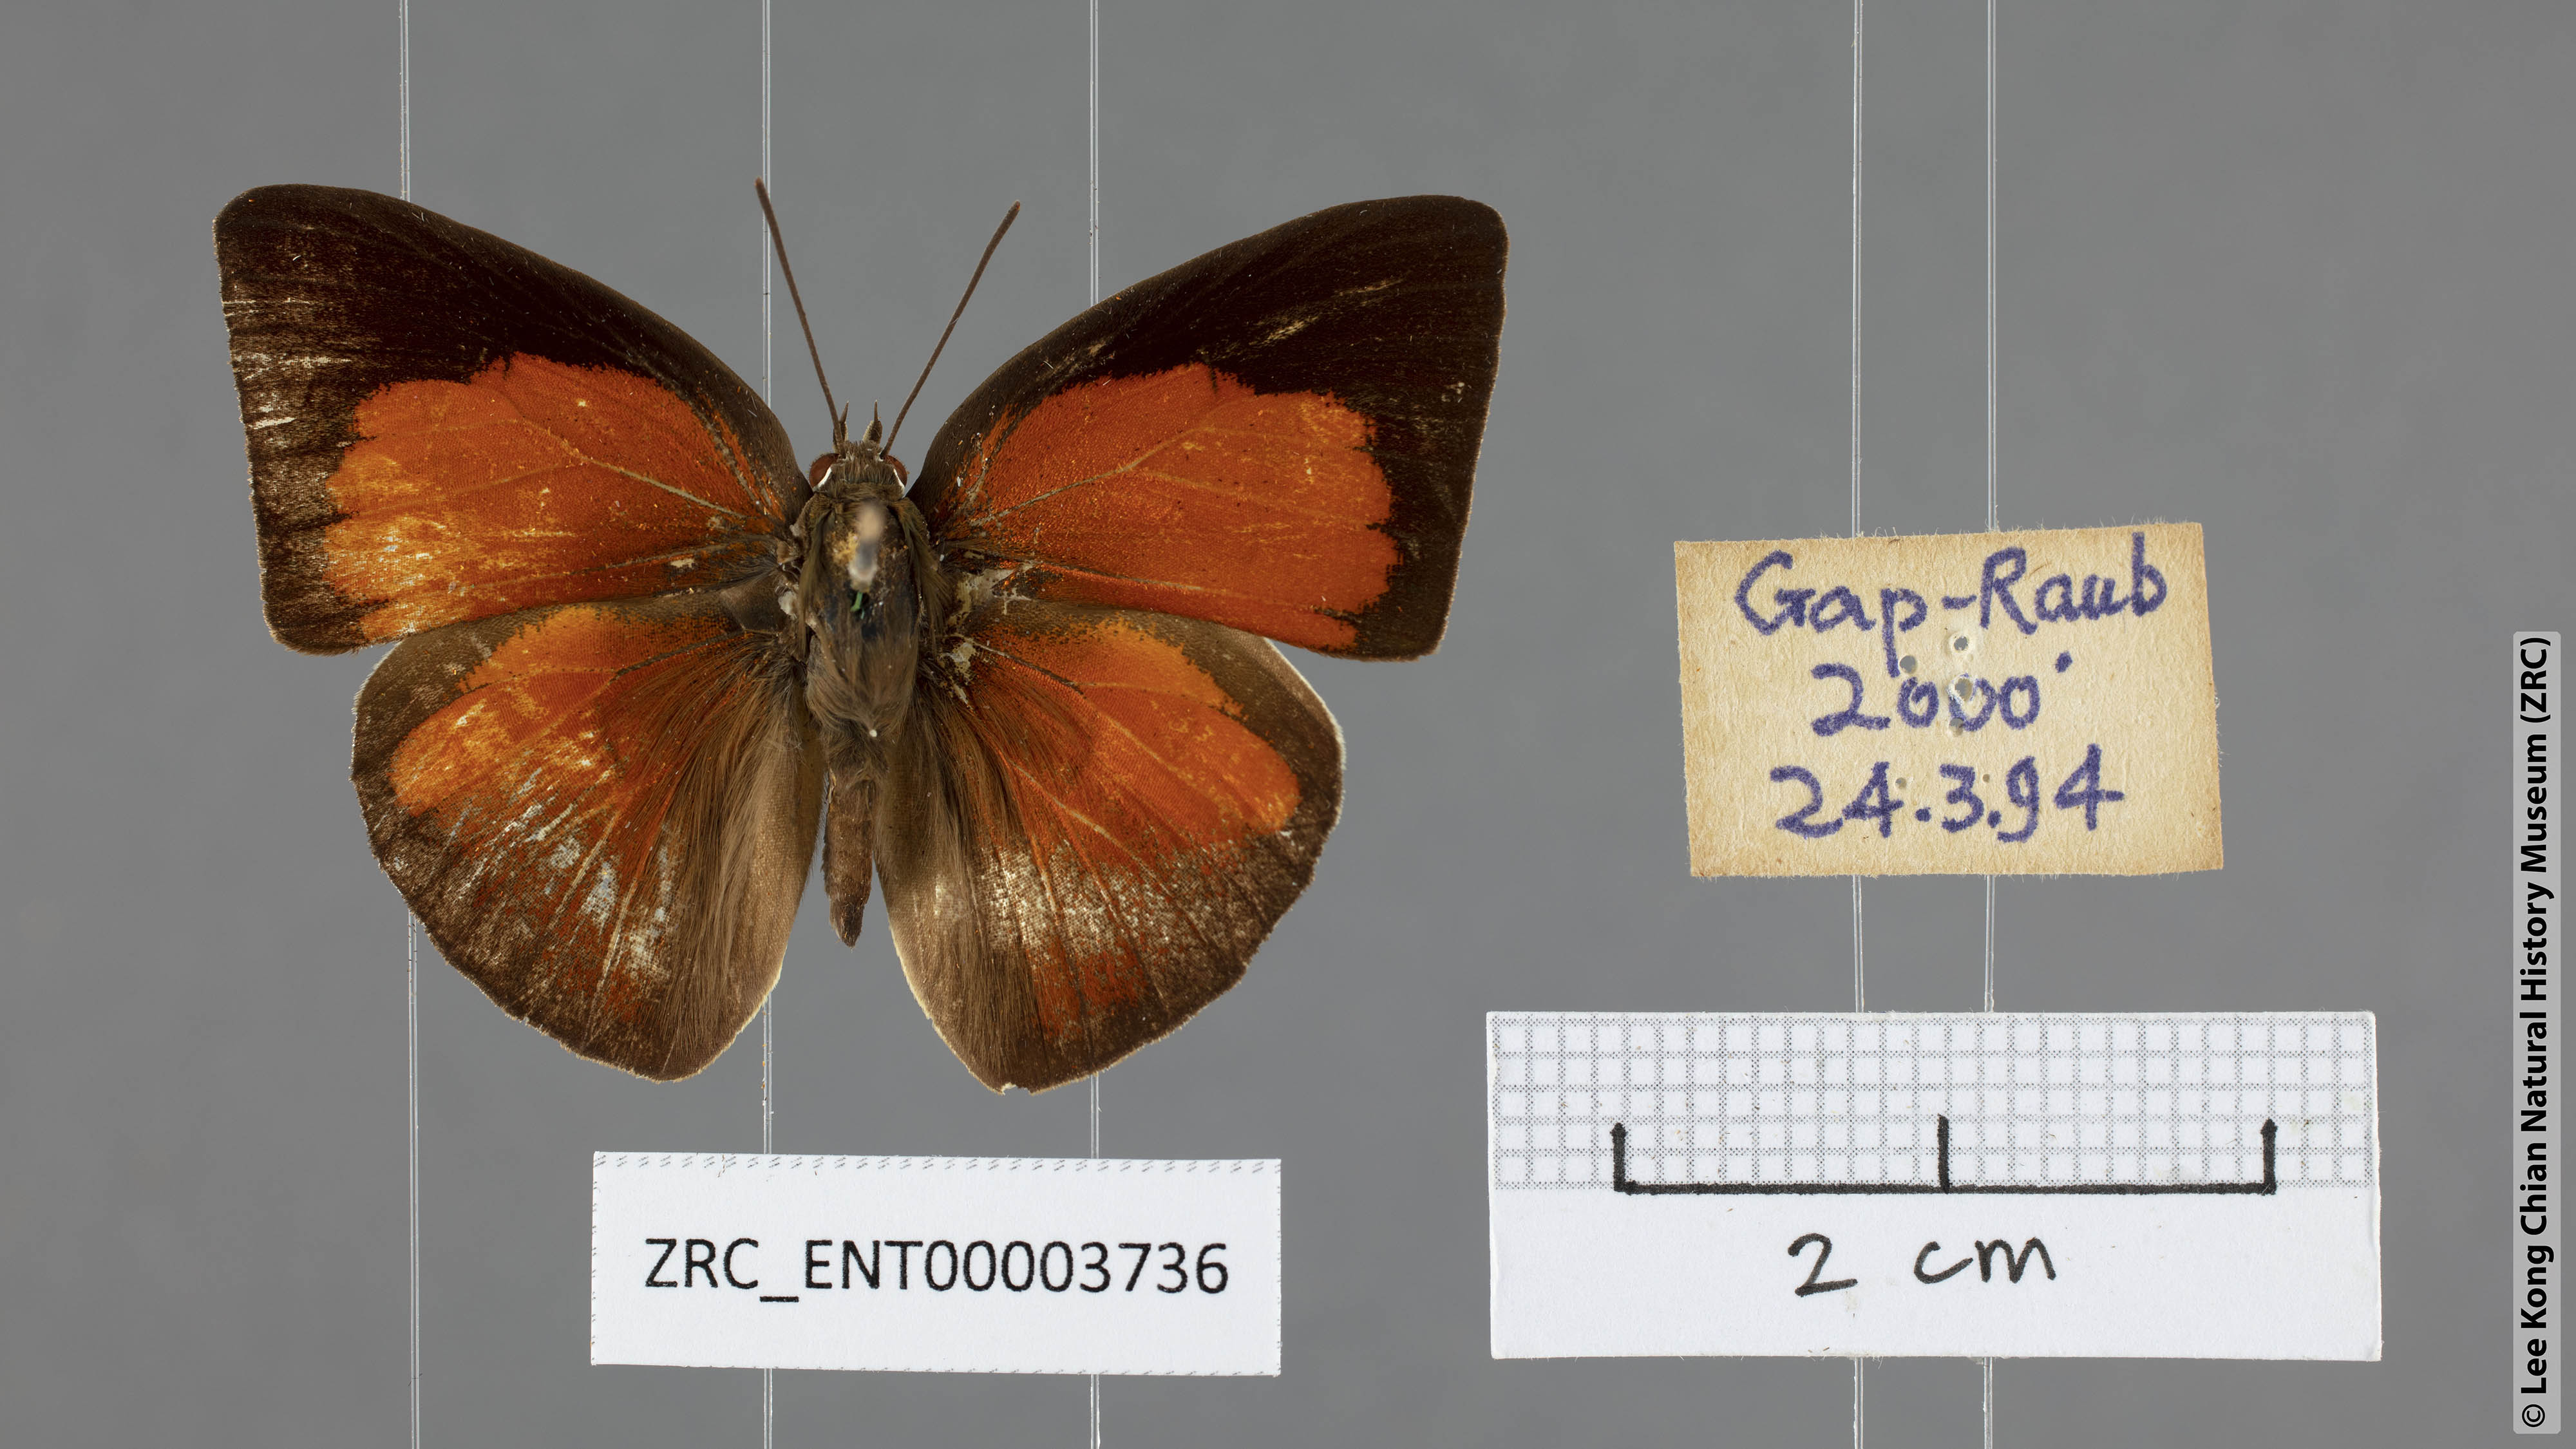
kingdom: Animalia
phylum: Arthropoda
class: Insecta
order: Lepidoptera
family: Lycaenidae
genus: Curetis
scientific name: Curetis freda
